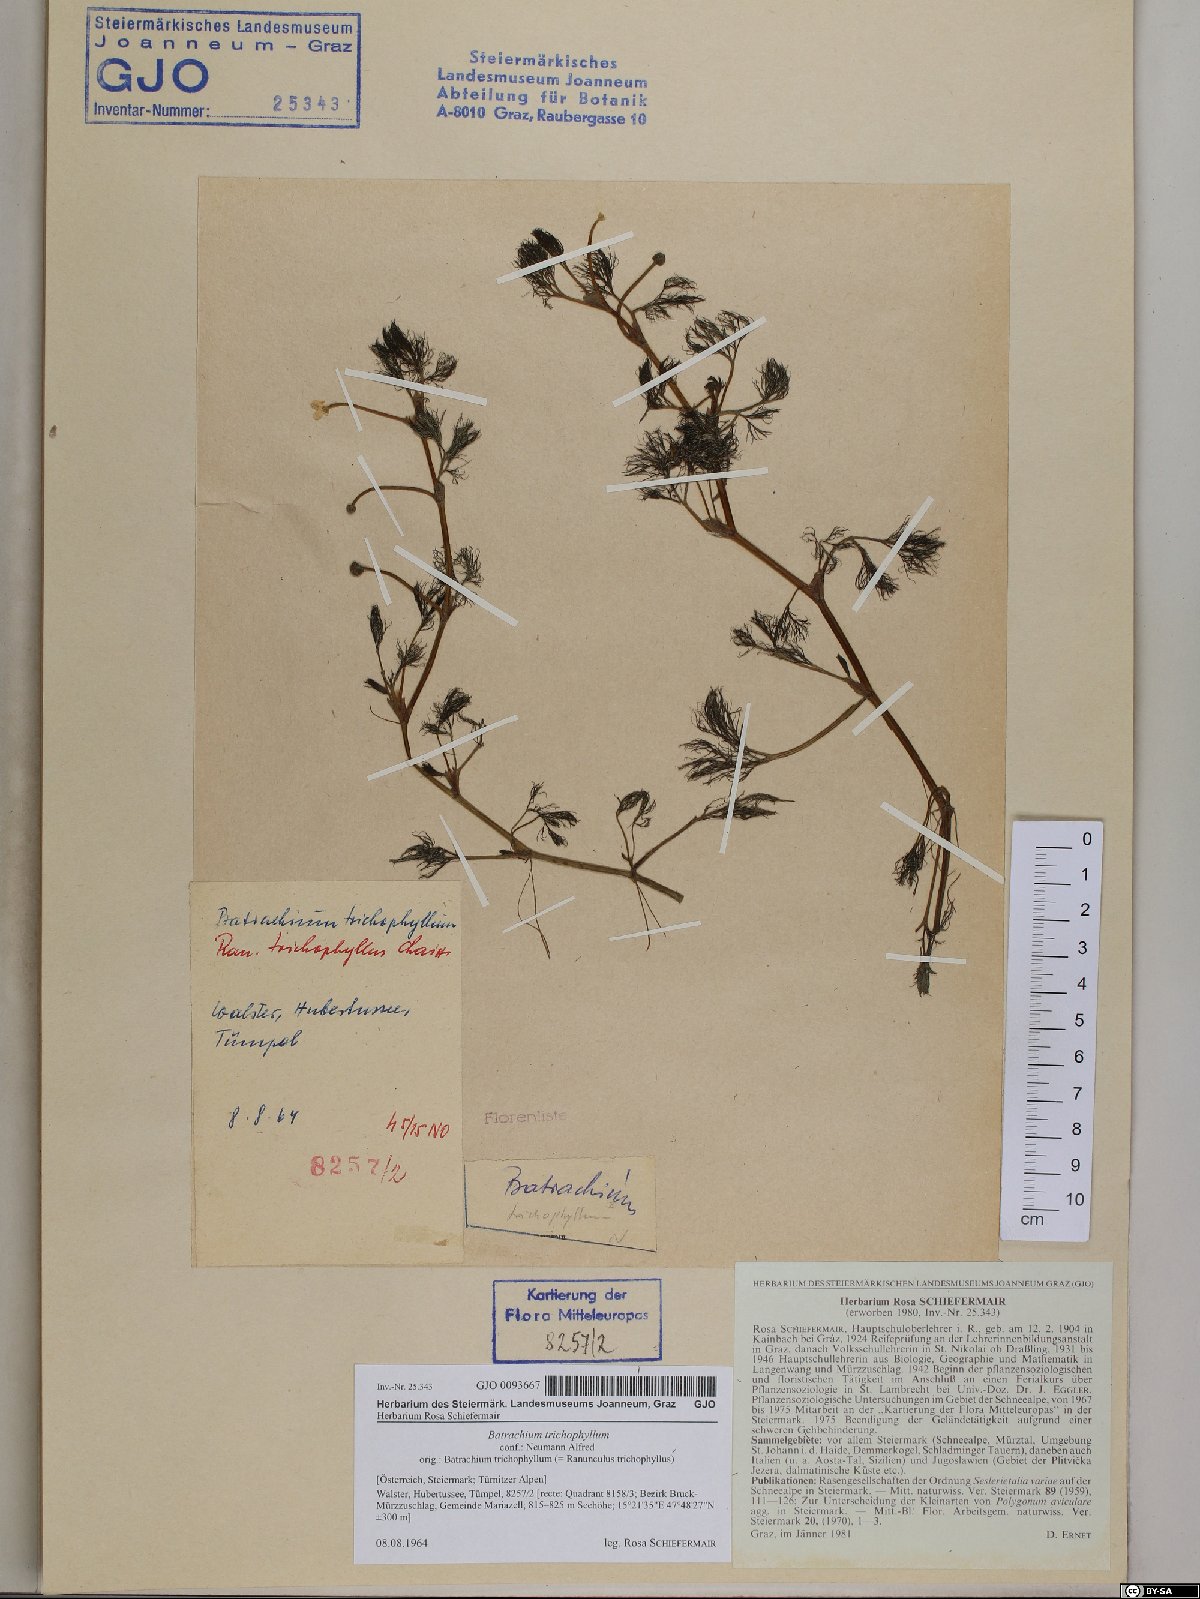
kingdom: Plantae
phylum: Tracheophyta
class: Magnoliopsida
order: Ranunculales
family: Ranunculaceae
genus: Ranunculus
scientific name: Ranunculus trichophyllus
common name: Thread-leaved water-crowfoot
